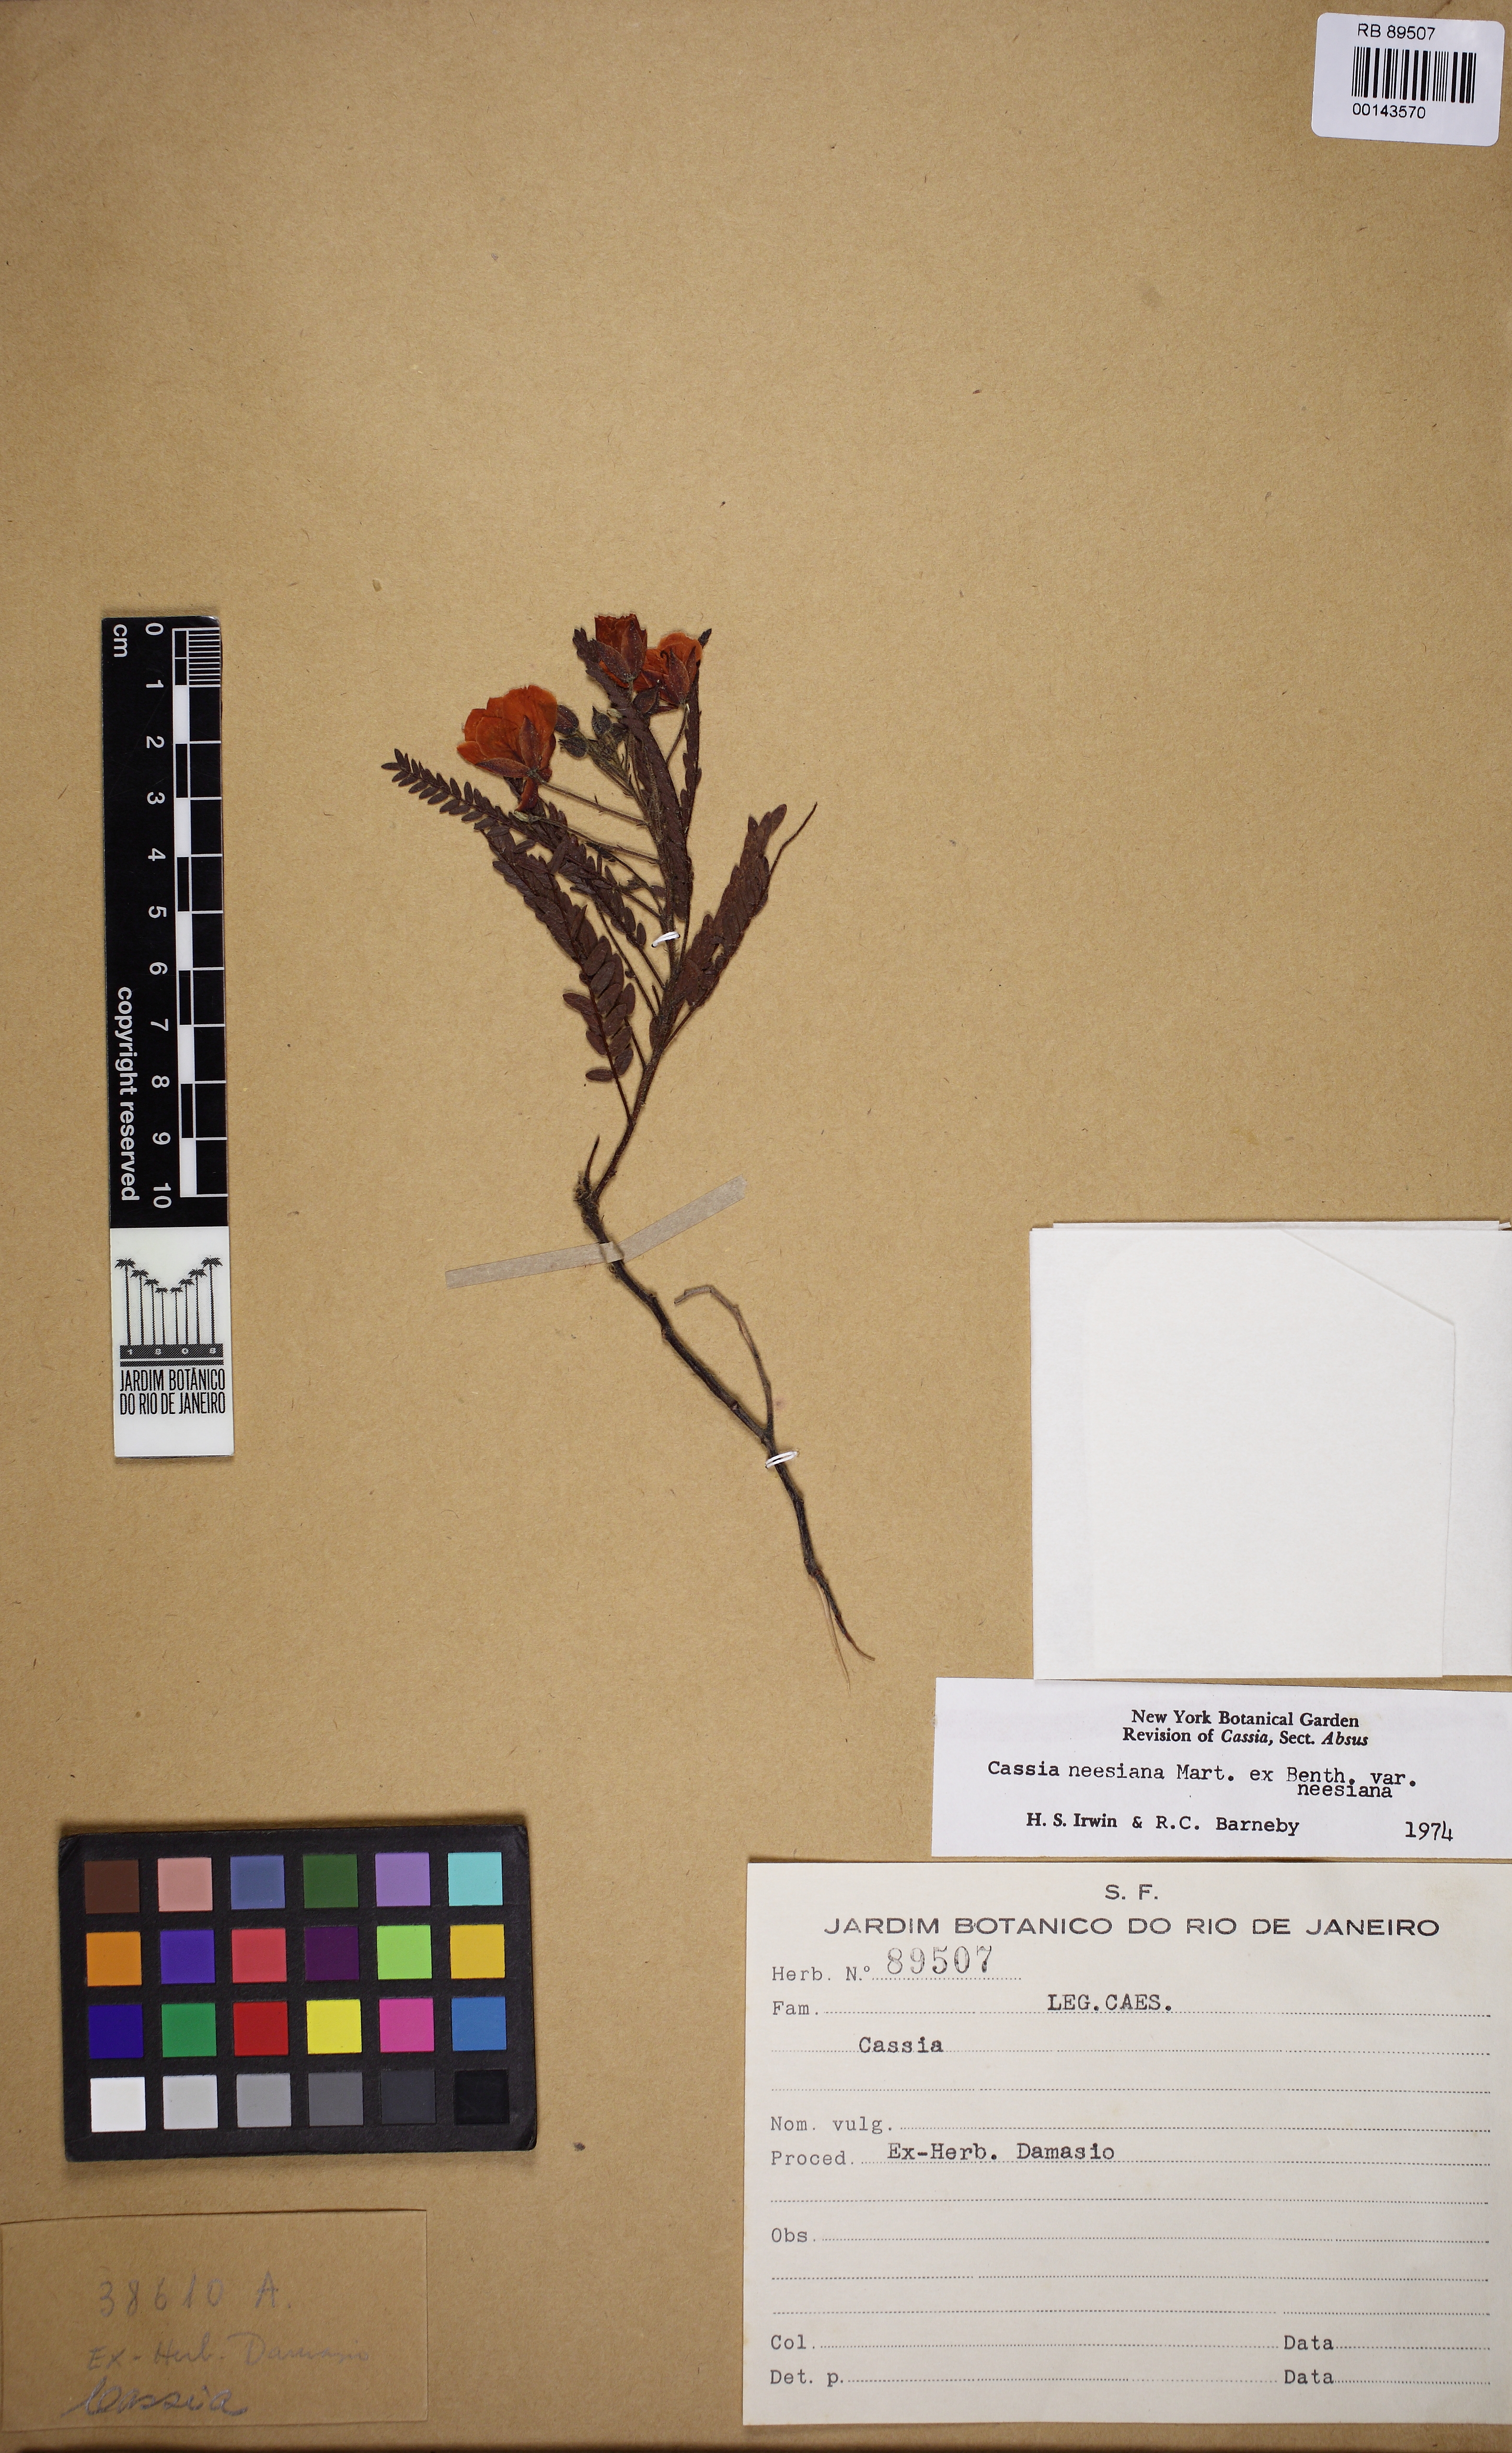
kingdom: Plantae
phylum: Tracheophyta
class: Magnoliopsida
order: Fabales
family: Fabaceae
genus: Chamaecrista
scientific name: Chamaecrista neesiana
